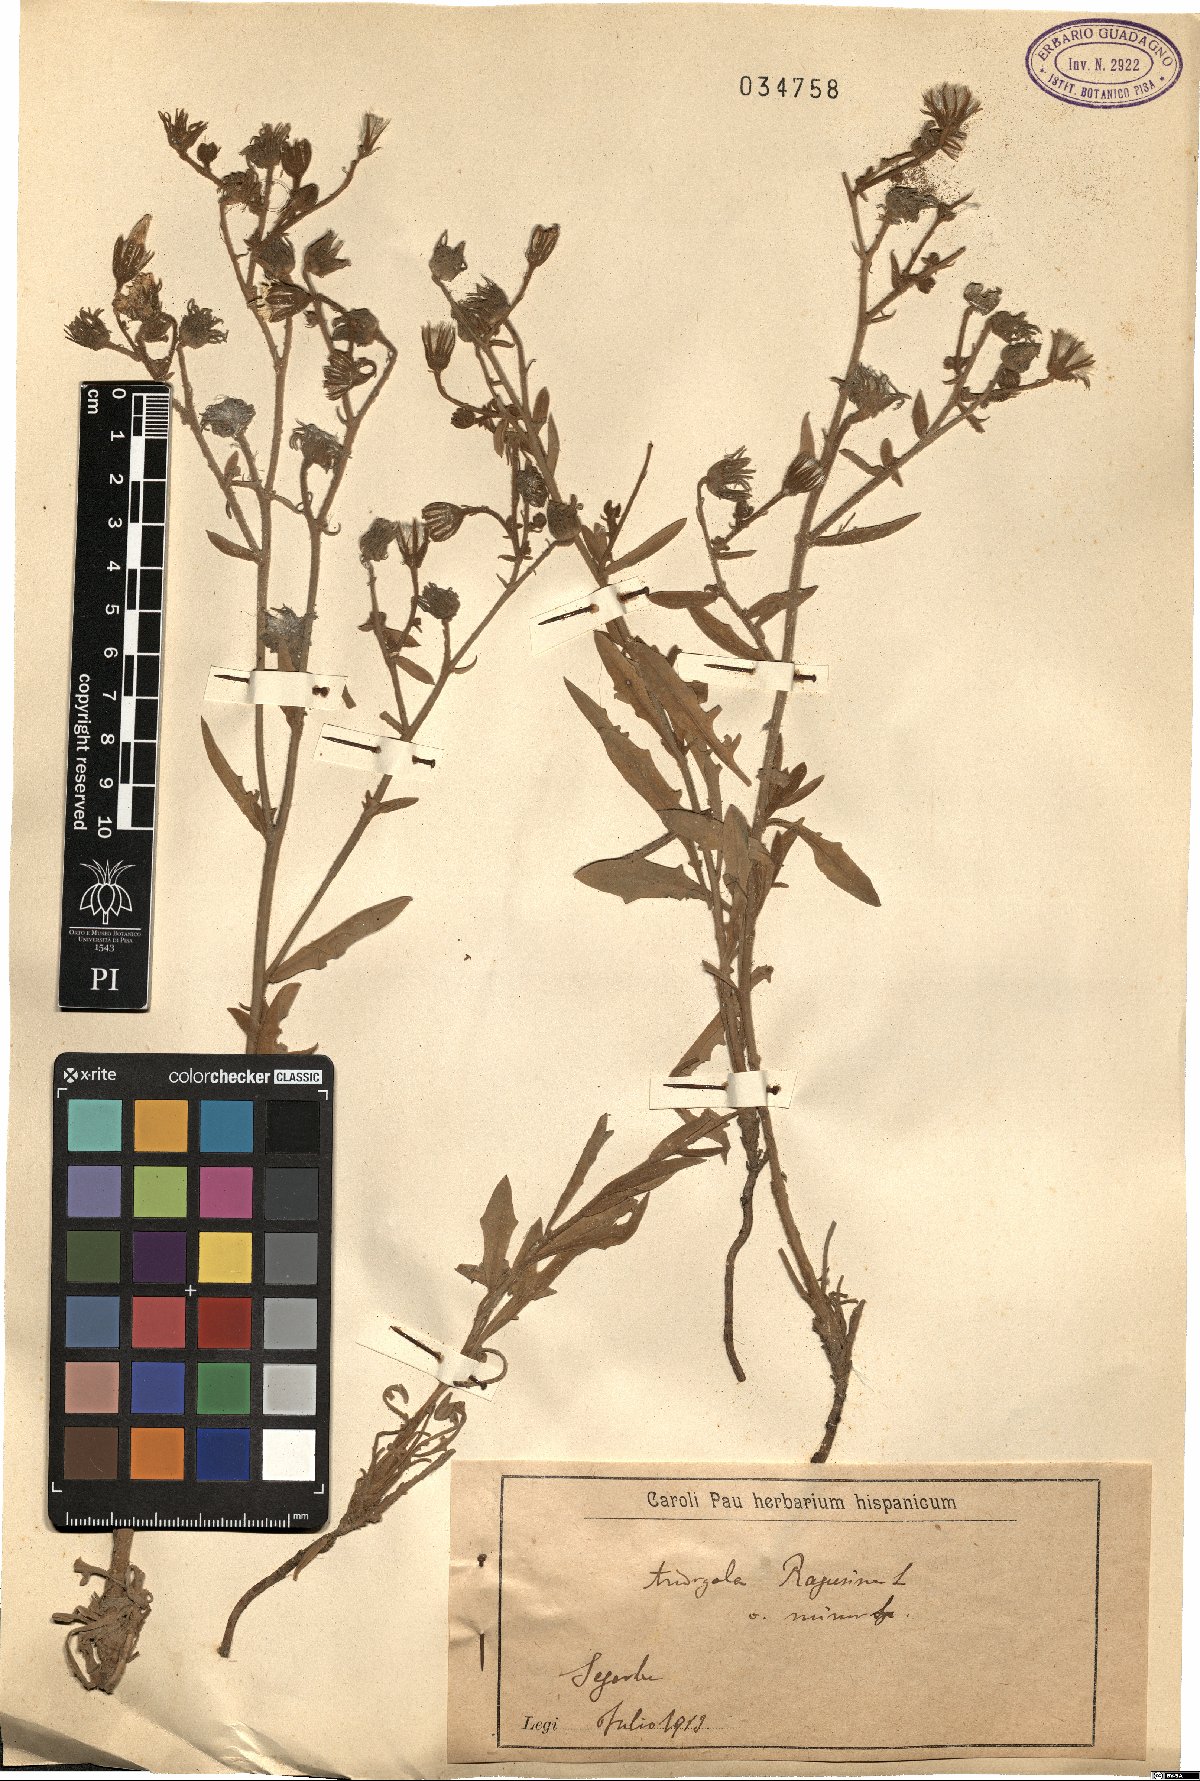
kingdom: Plantae
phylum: Tracheophyta
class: Magnoliopsida
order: Asterales
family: Asteraceae
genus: Andryala
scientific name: Andryala ragusina
